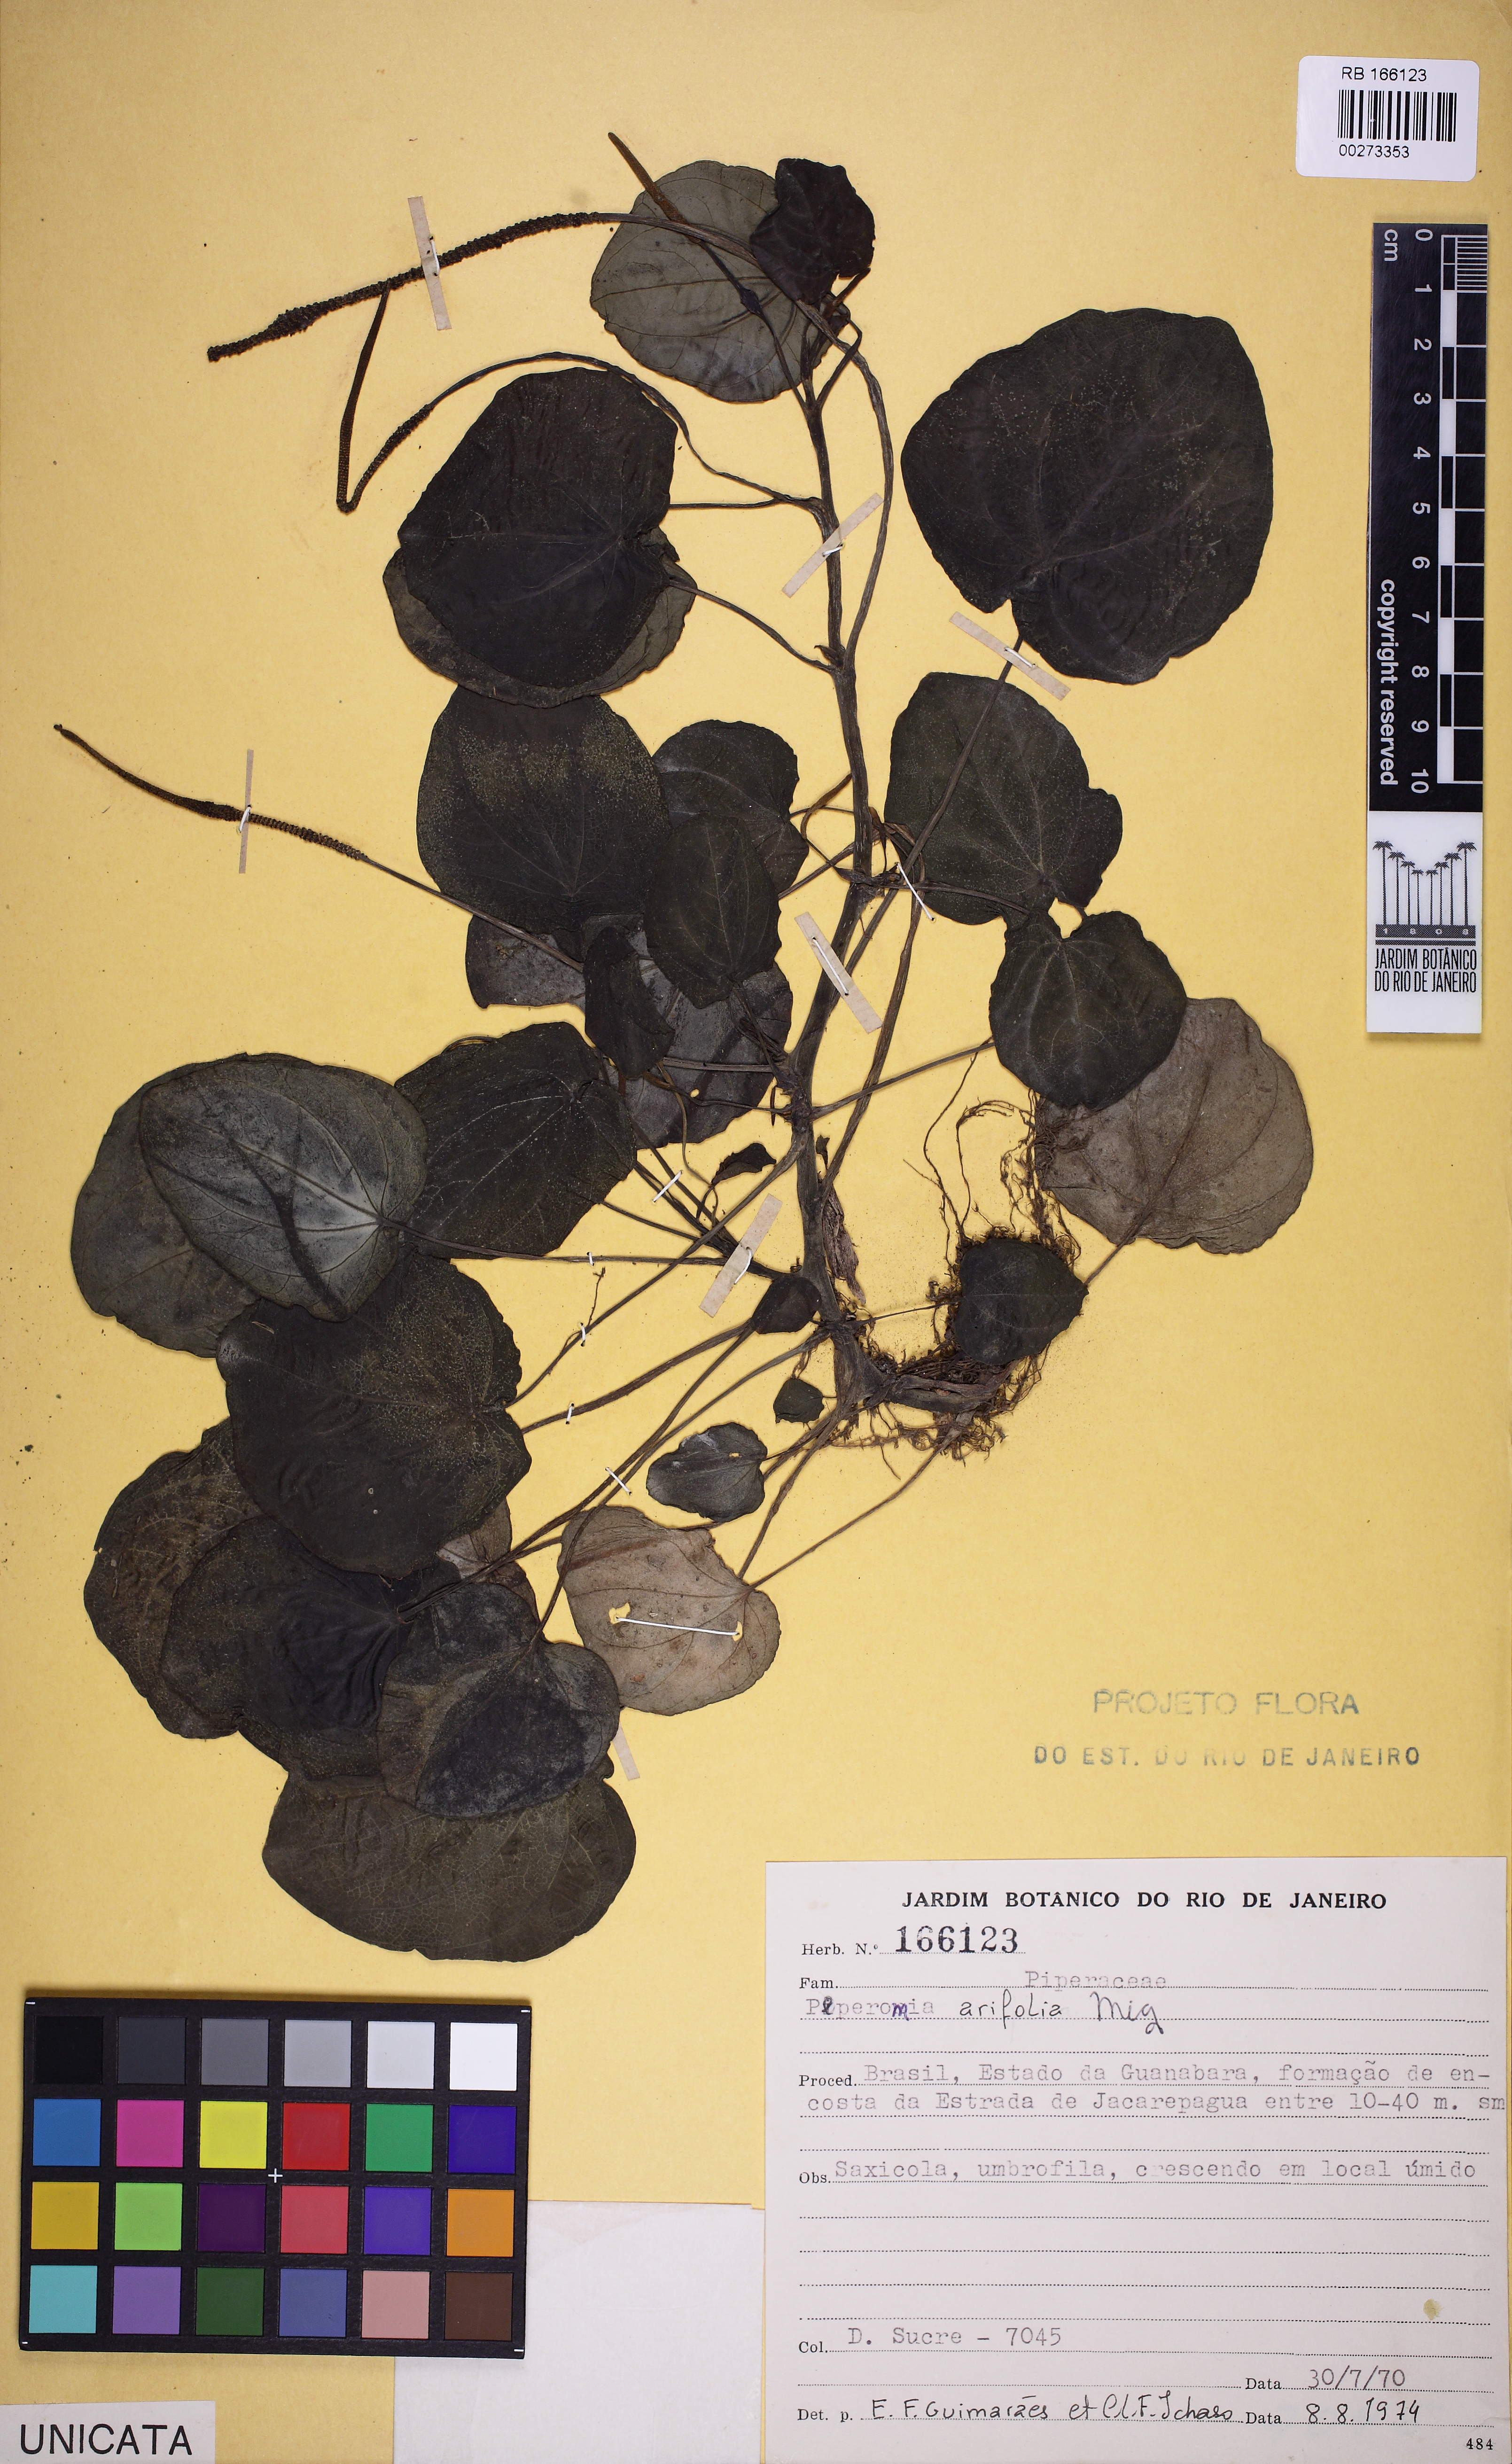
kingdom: Plantae
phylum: Tracheophyta
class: Magnoliopsida
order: Piperales
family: Piperaceae
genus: Peperomia
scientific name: Peperomia arifolia
